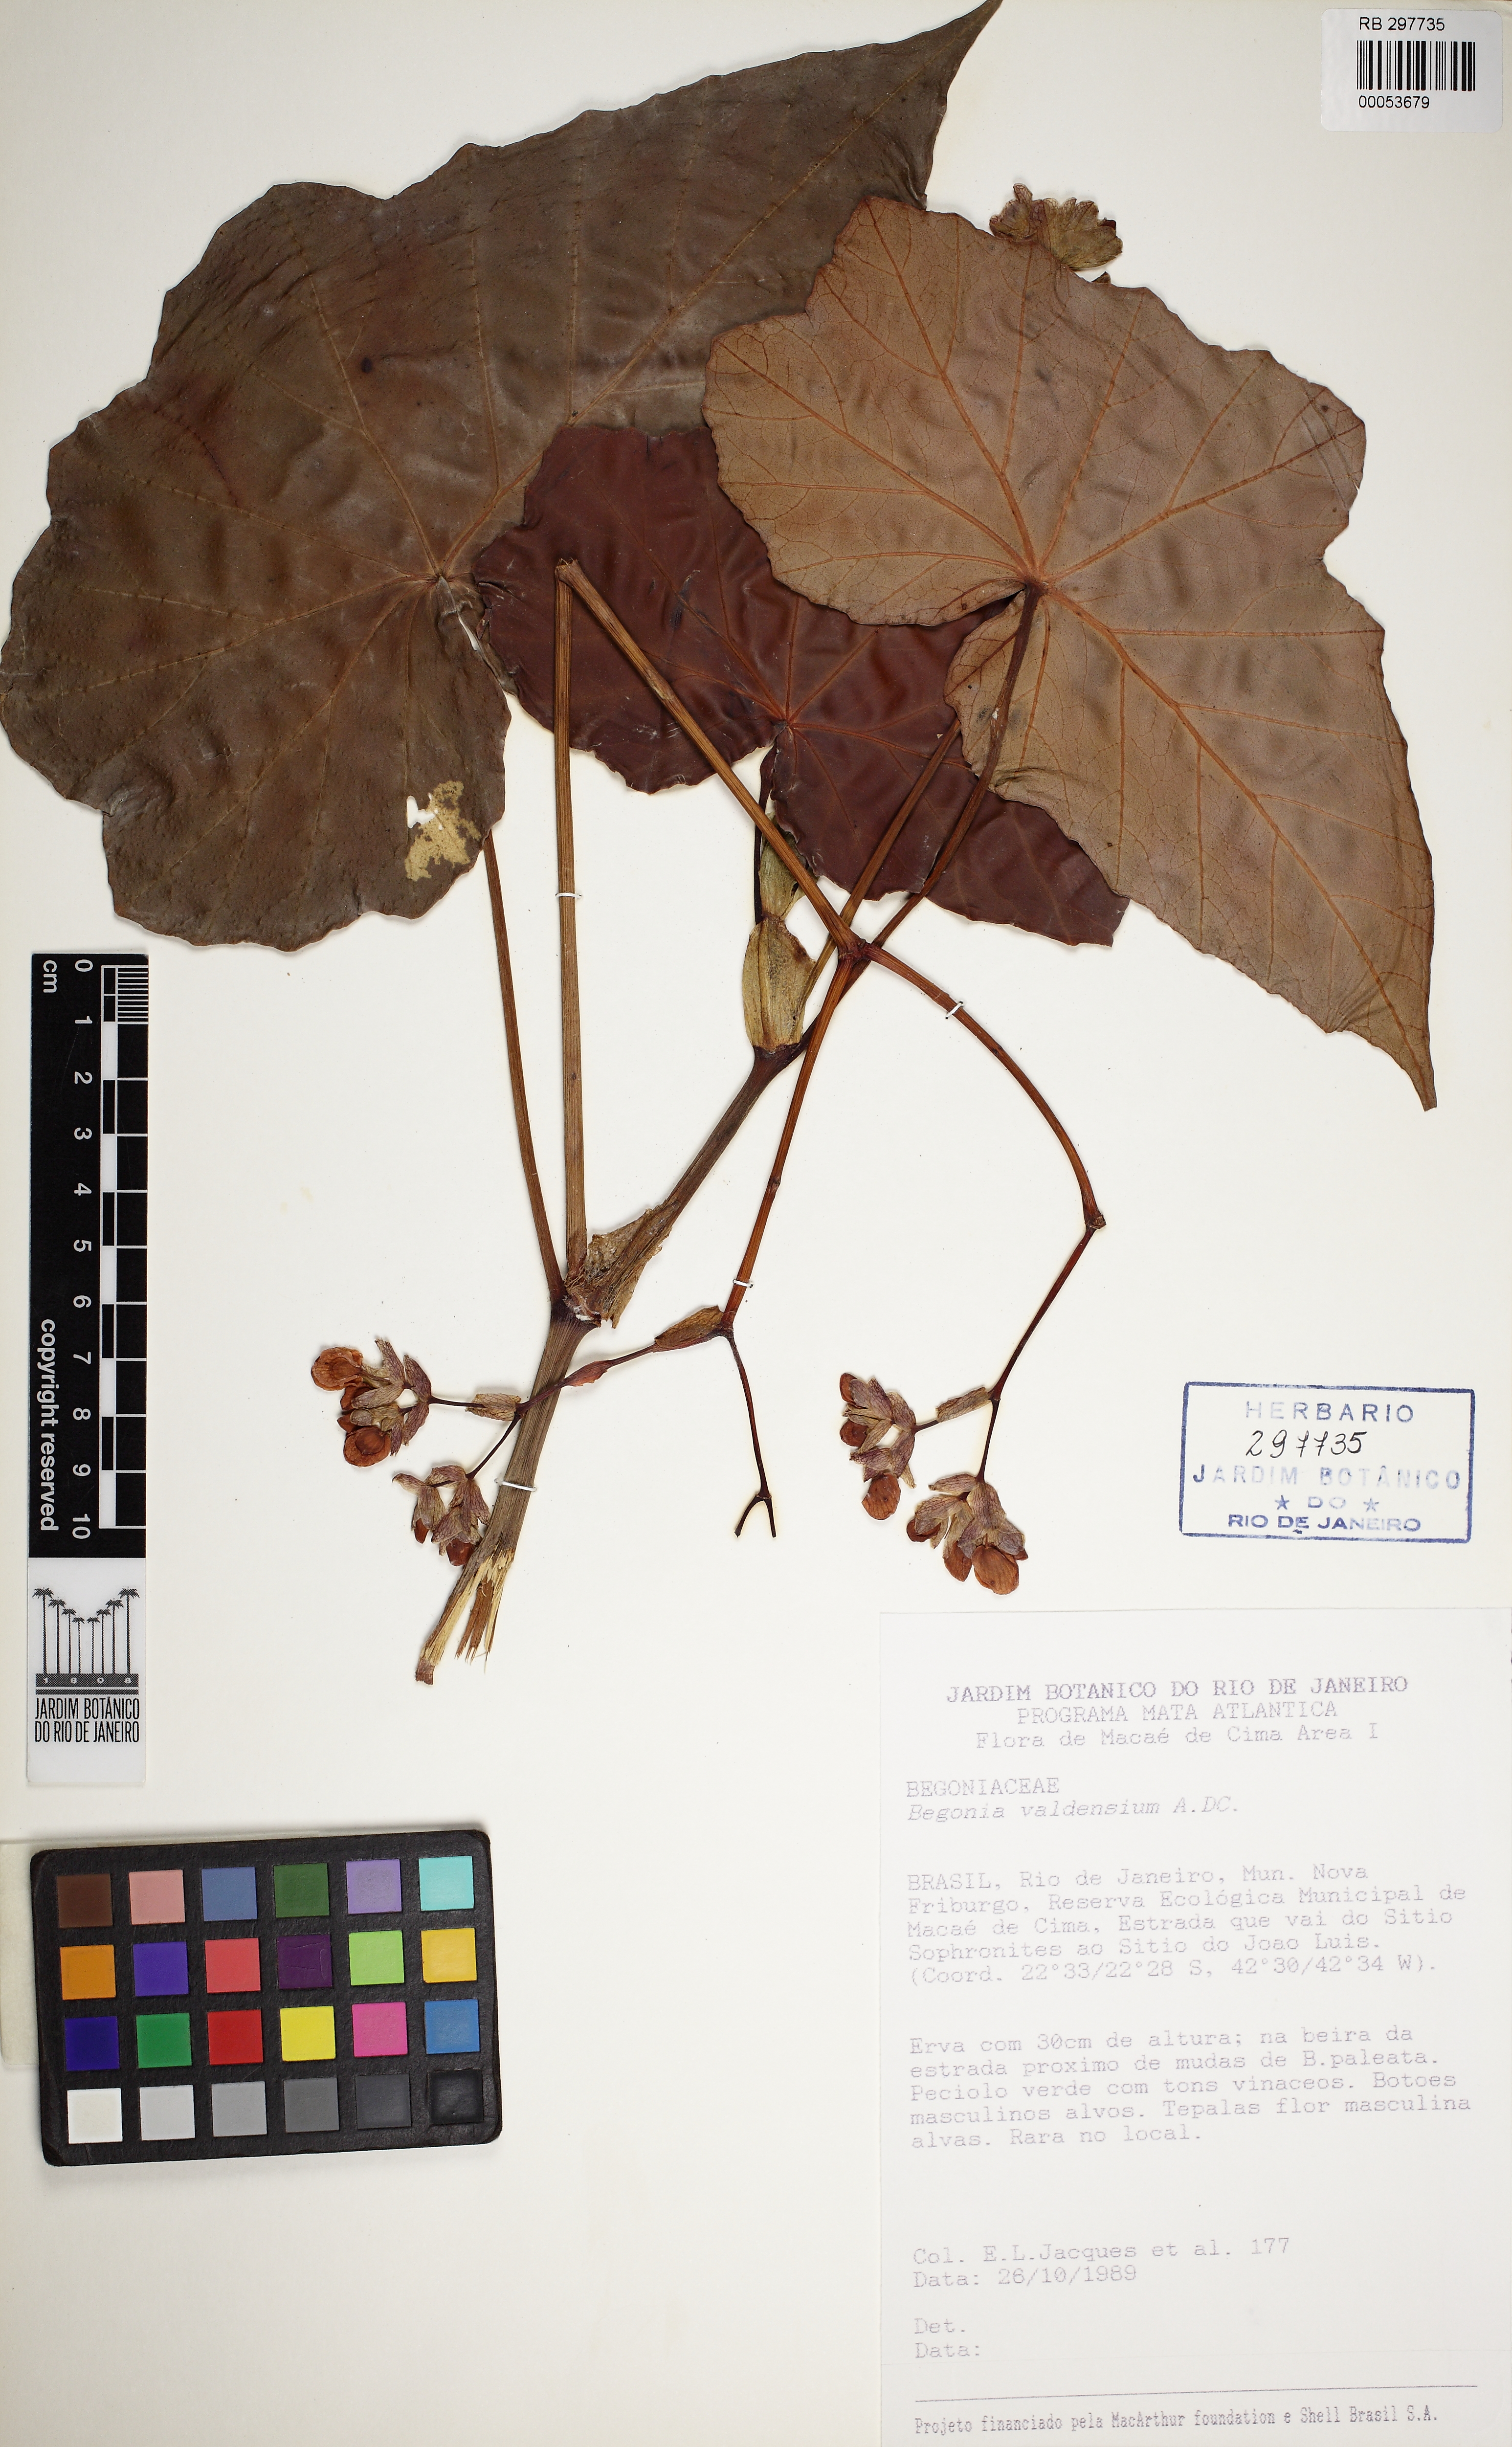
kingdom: Plantae
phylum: Tracheophyta
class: Magnoliopsida
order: Cucurbitales
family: Begoniaceae
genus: Begonia
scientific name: Begonia valdensium
